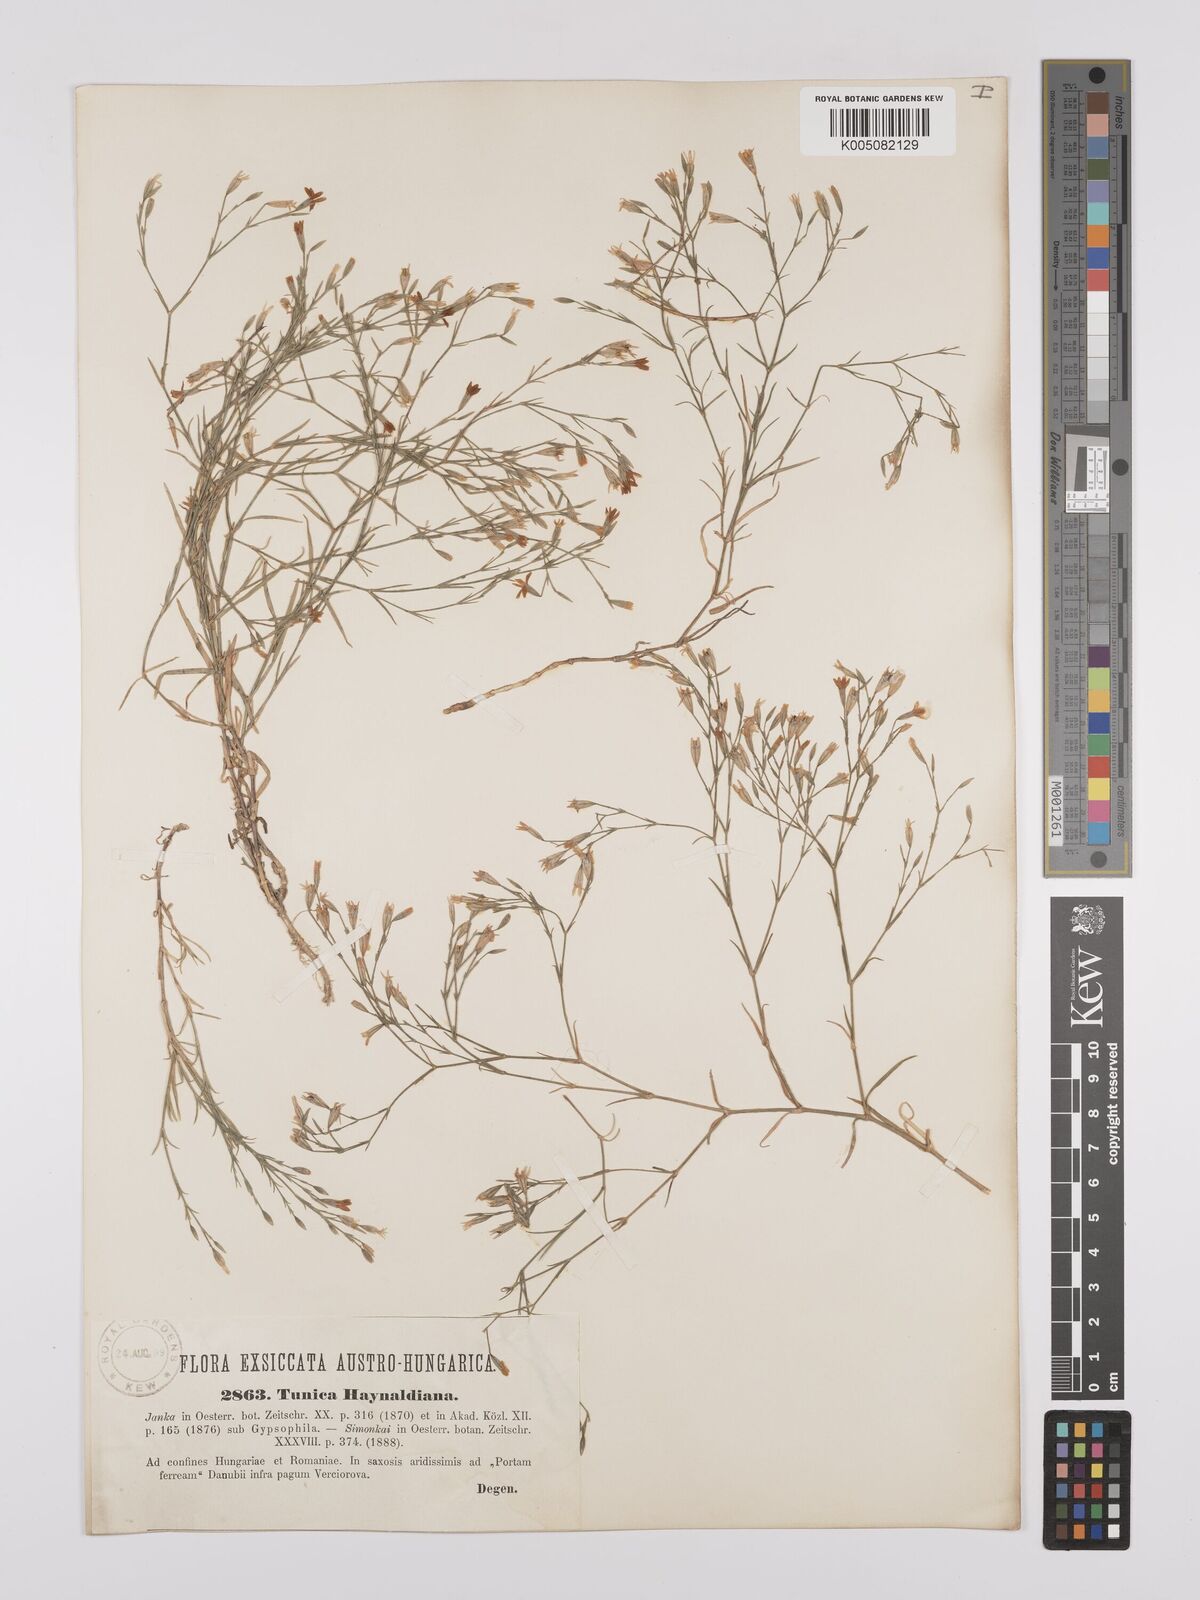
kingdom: Plantae
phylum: Tracheophyta
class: Magnoliopsida
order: Caryophyllales
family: Caryophyllaceae
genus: Dianthus
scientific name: Dianthus illyricus
